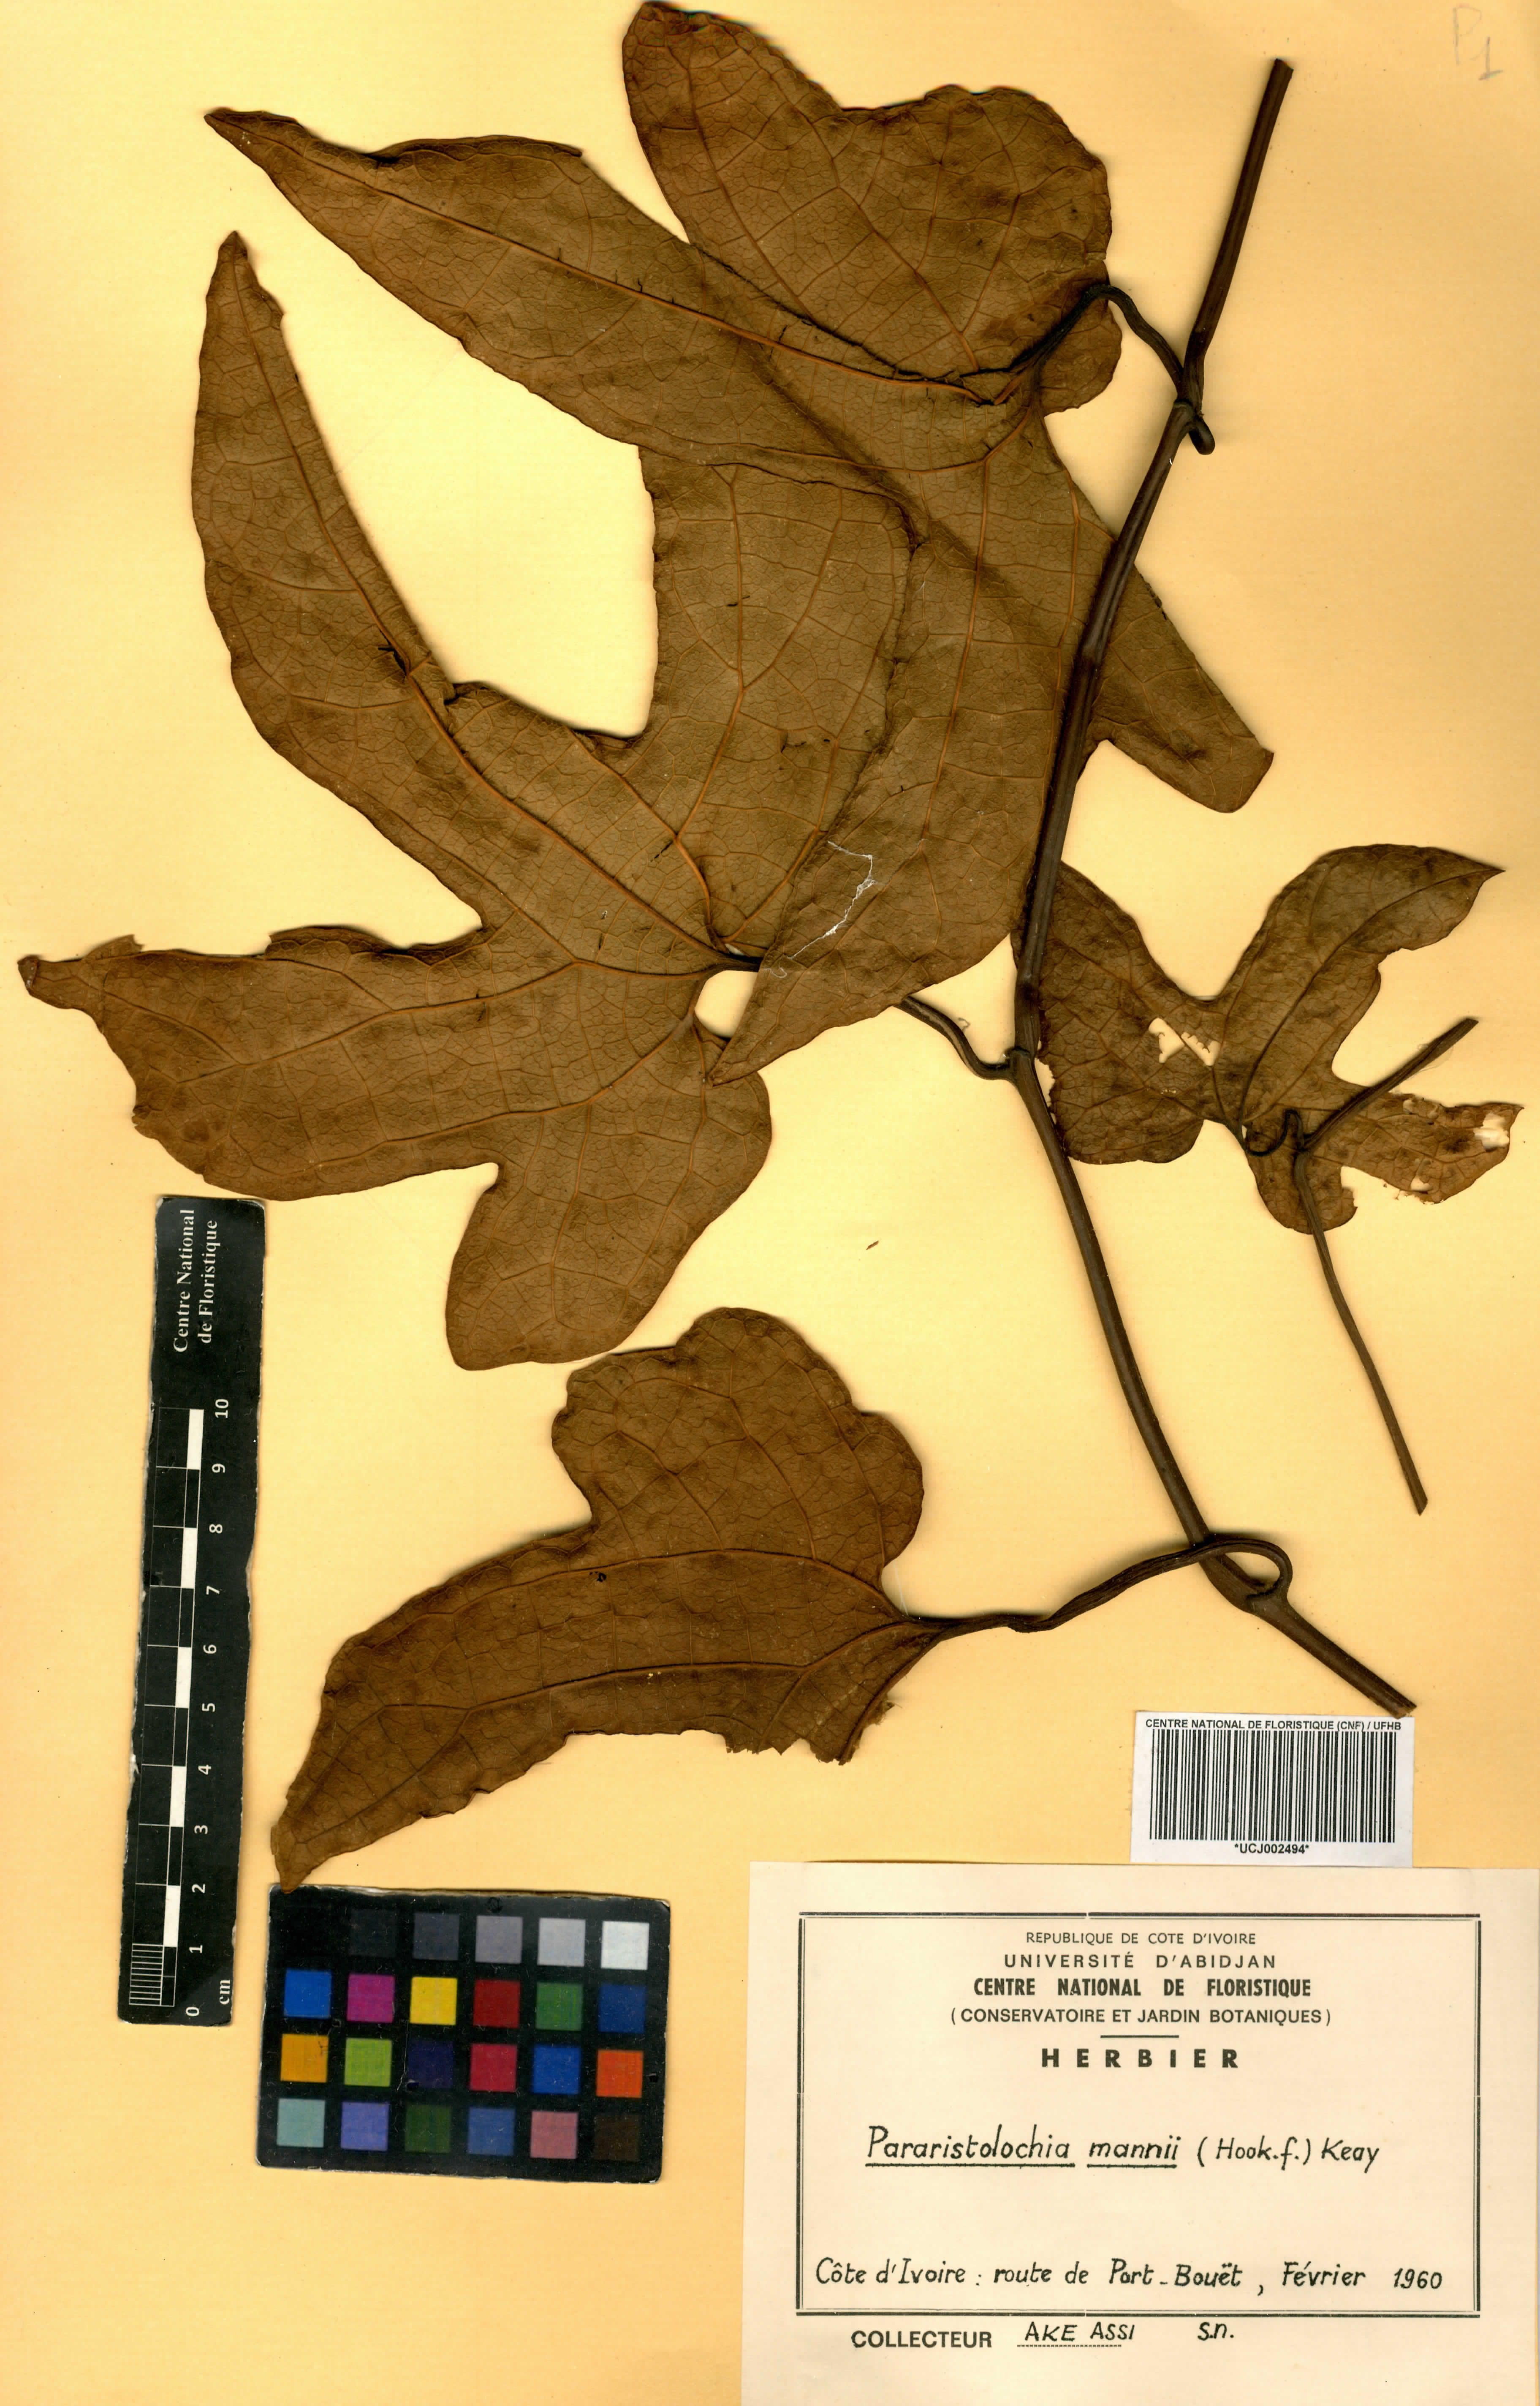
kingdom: Plantae
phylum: Tracheophyta
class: Magnoliopsida
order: Piperales
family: Aristolochiaceae
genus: Aristolochia
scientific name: Aristolochia mannii
